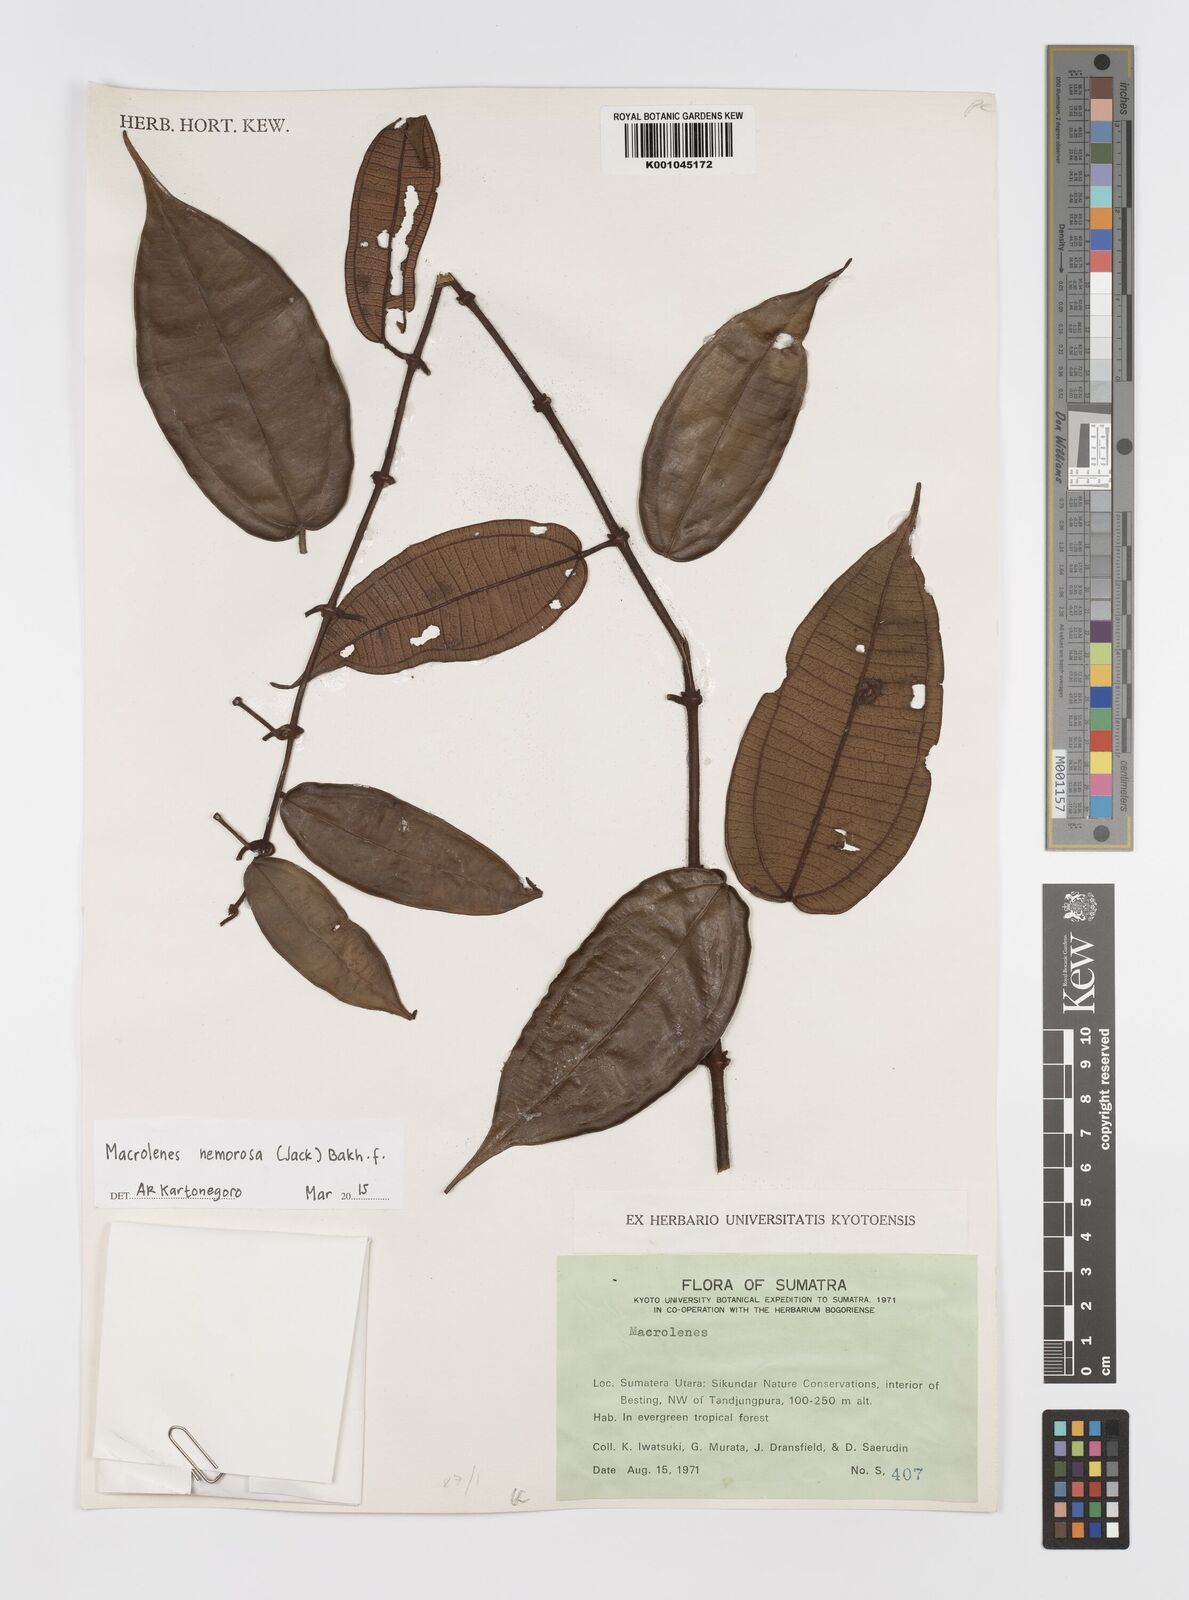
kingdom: Plantae
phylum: Tracheophyta
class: Magnoliopsida
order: Myrtales
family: Melastomataceae
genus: Macrolenes
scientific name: Macrolenes nemorosa
